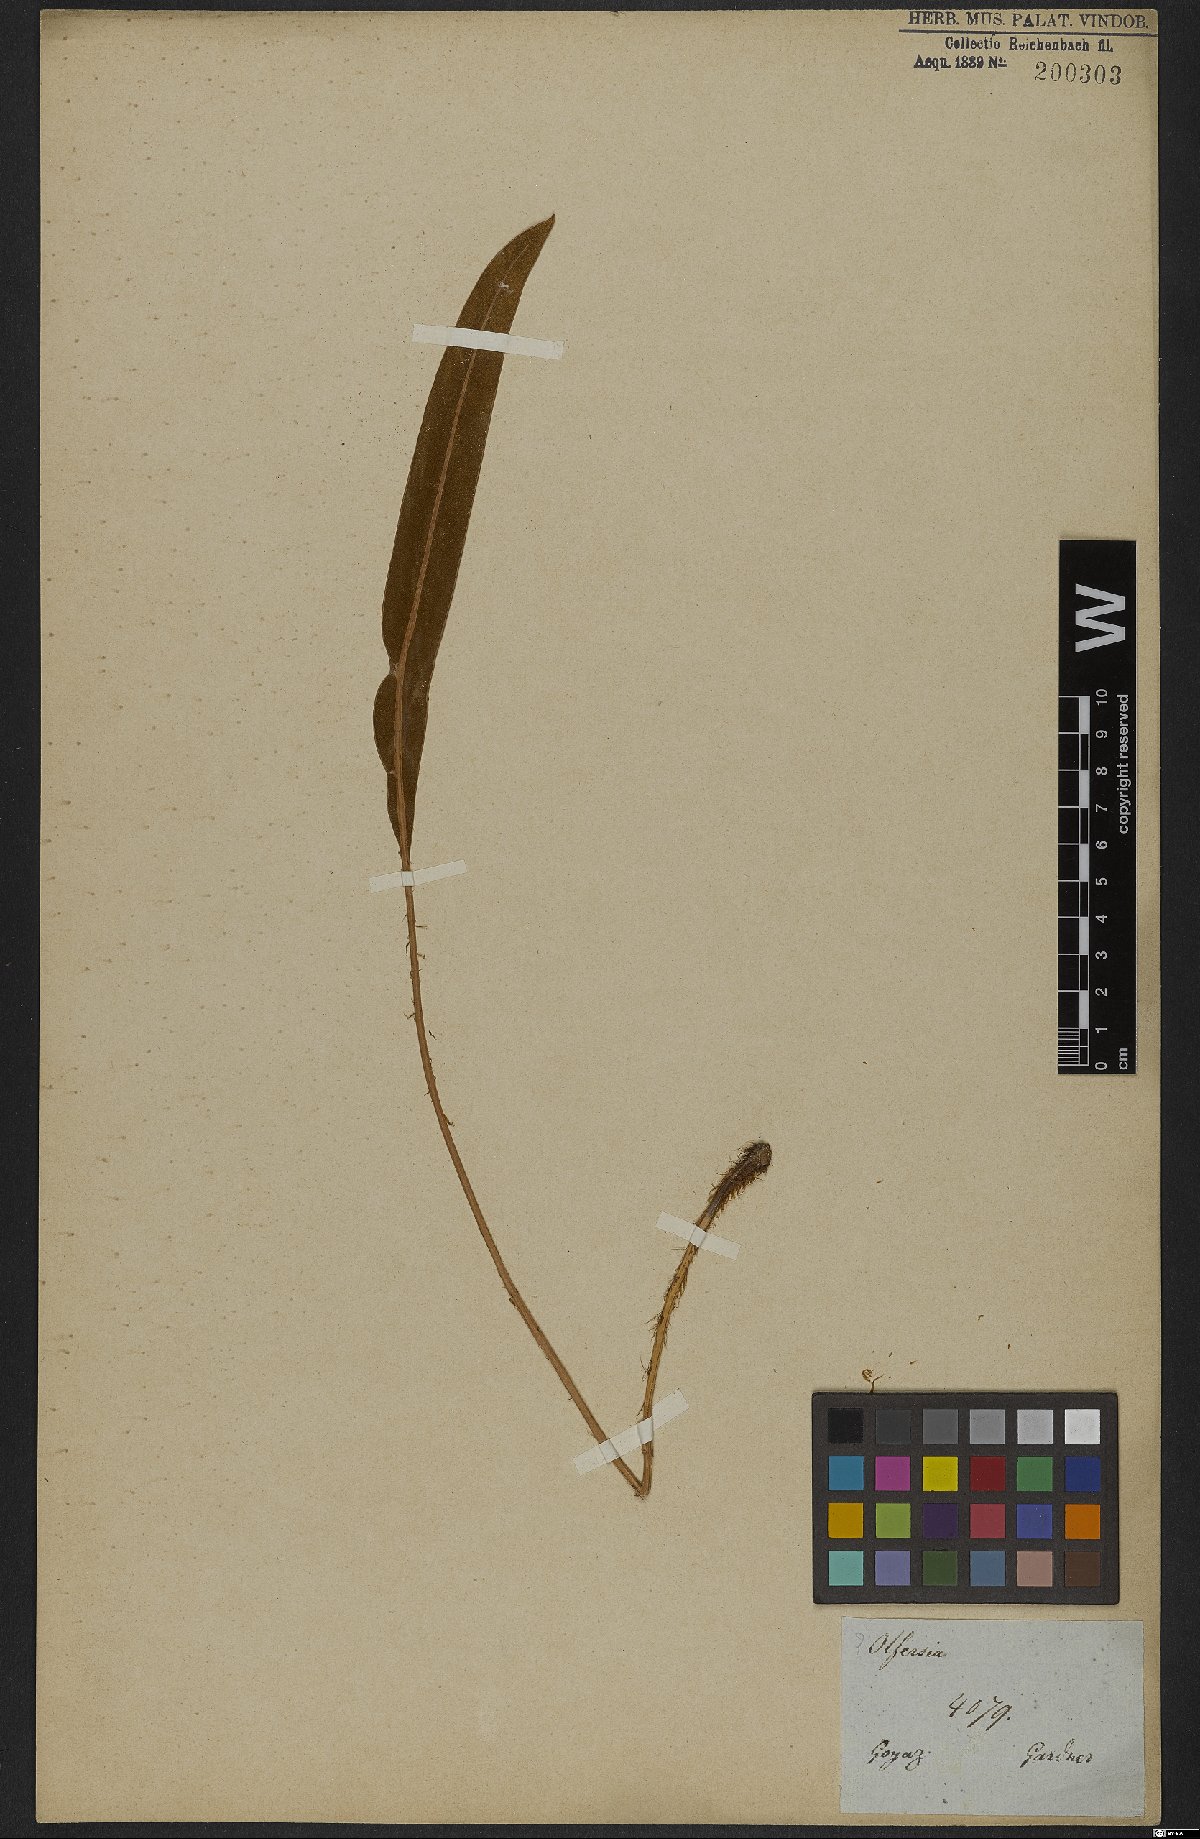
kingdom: Plantae
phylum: Tracheophyta
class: Polypodiopsida
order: Polypodiales
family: Dryopteridaceae
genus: Elaphoglossum
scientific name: Elaphoglossum
